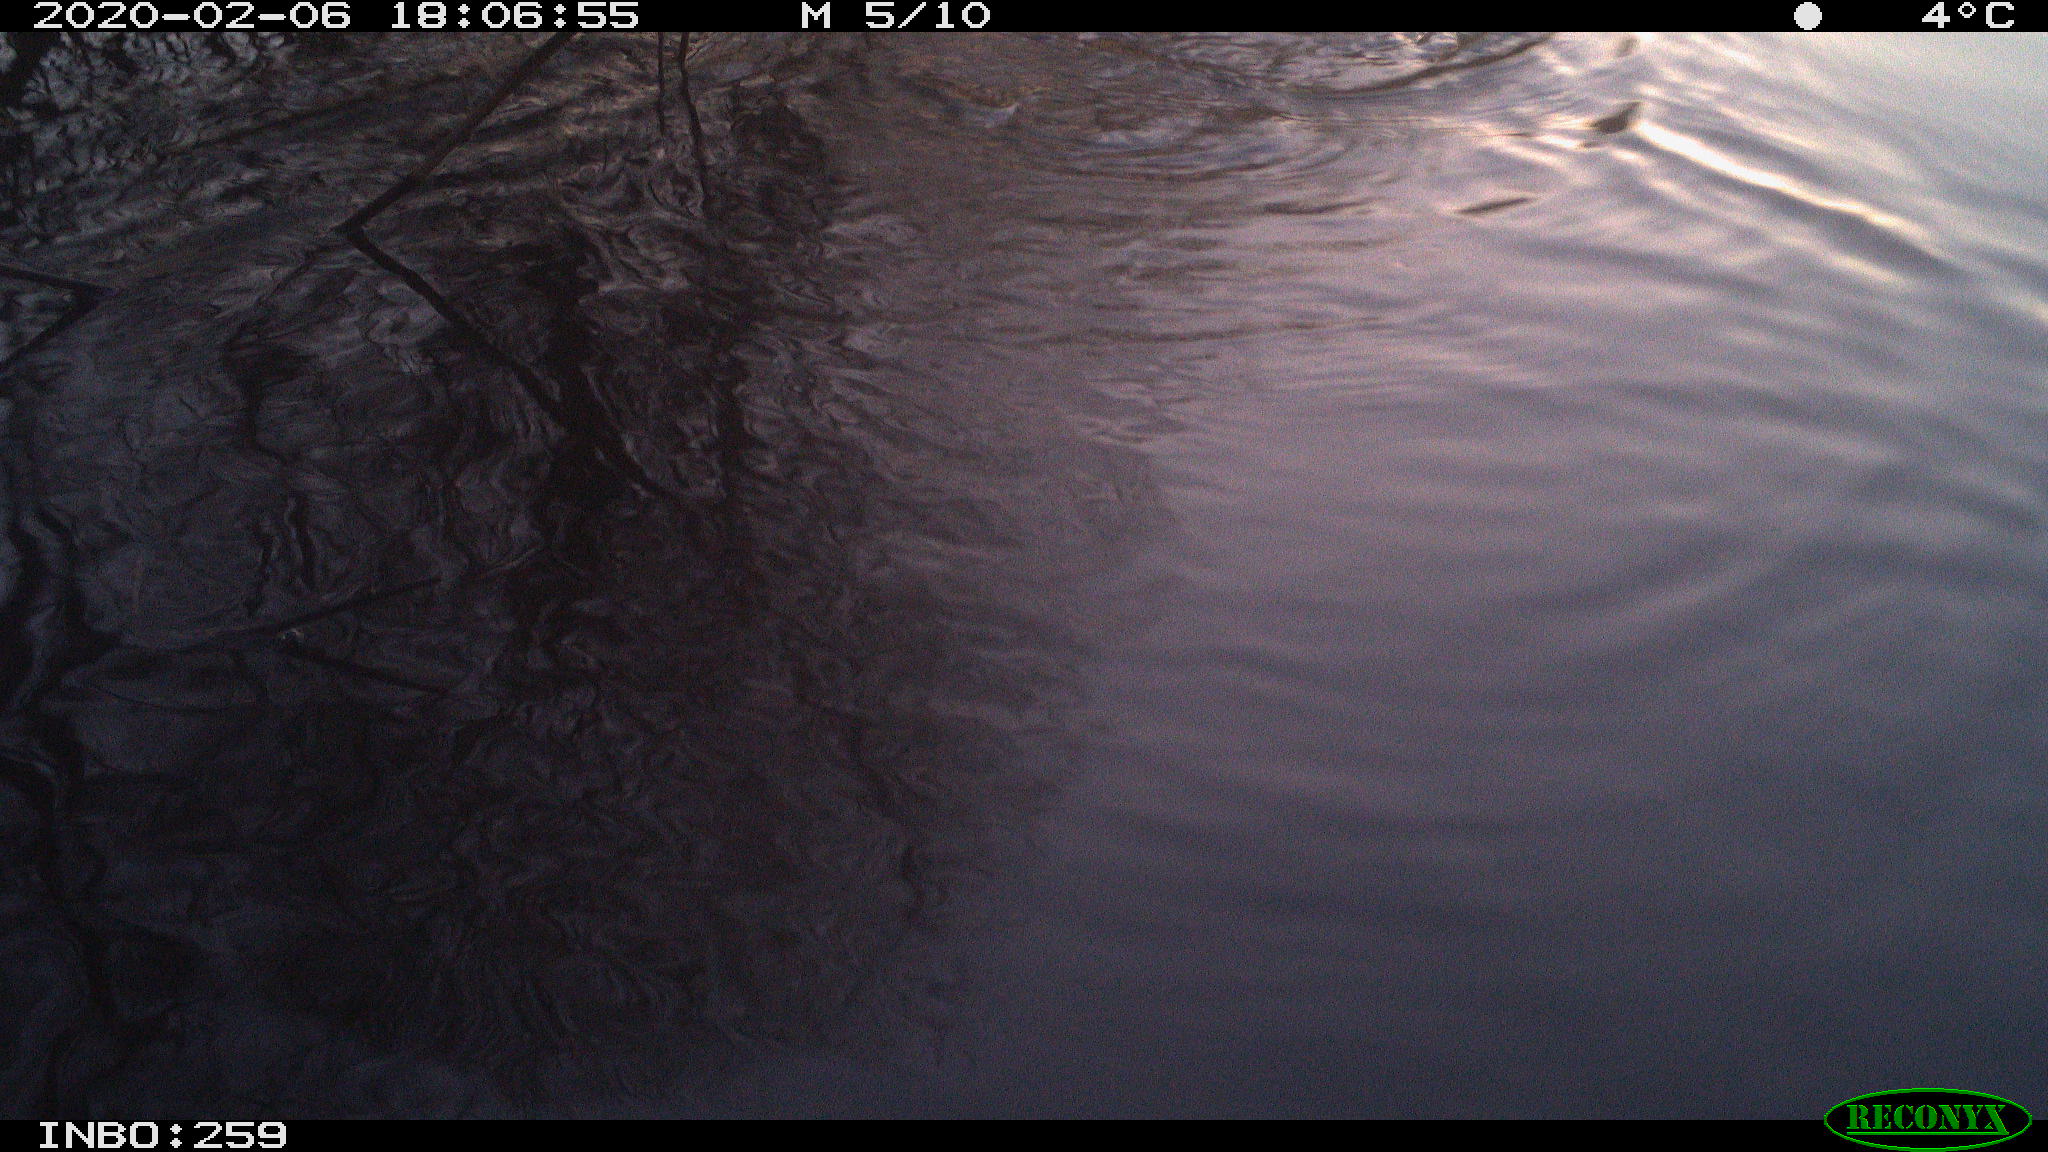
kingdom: Animalia
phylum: Chordata
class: Mammalia
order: Rodentia
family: Cricetidae
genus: Ondatra
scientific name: Ondatra zibethicus
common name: Muskrat
